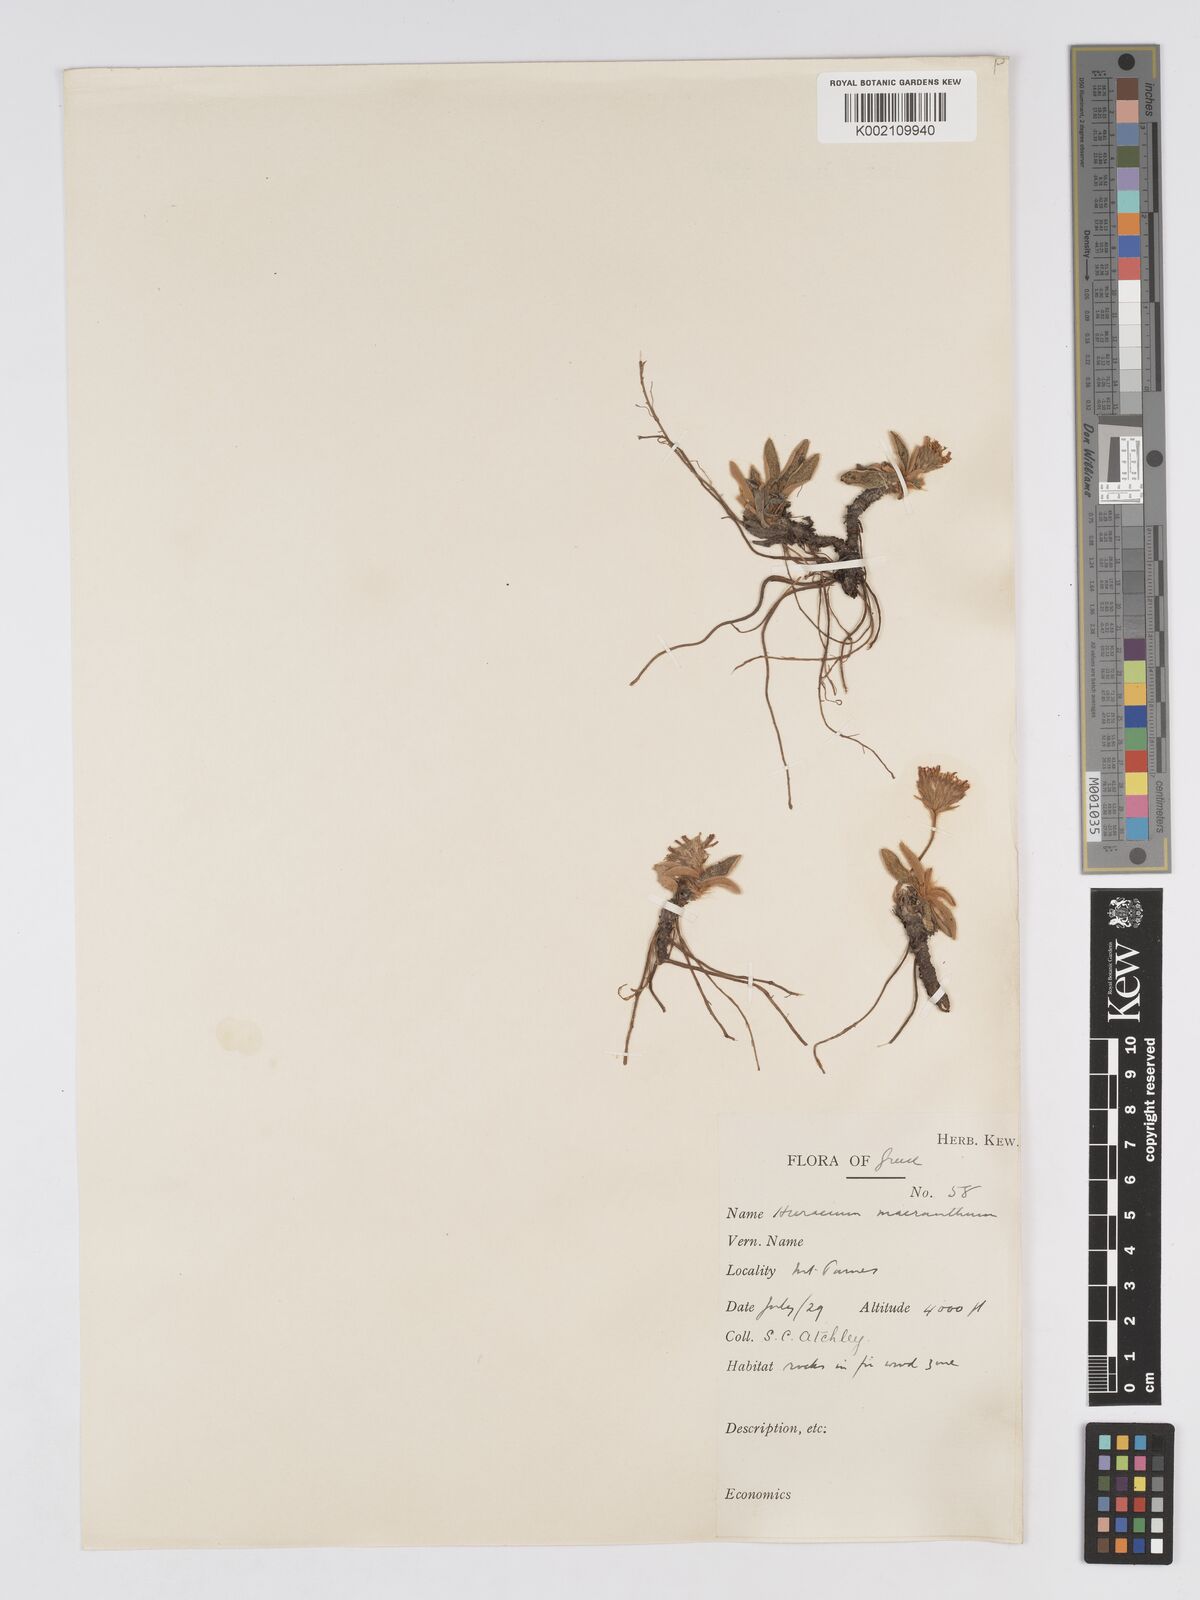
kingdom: Plantae
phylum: Tracheophyta
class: Magnoliopsida
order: Asterales
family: Asteraceae
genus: Pilosella
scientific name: Pilosella hoppeana
